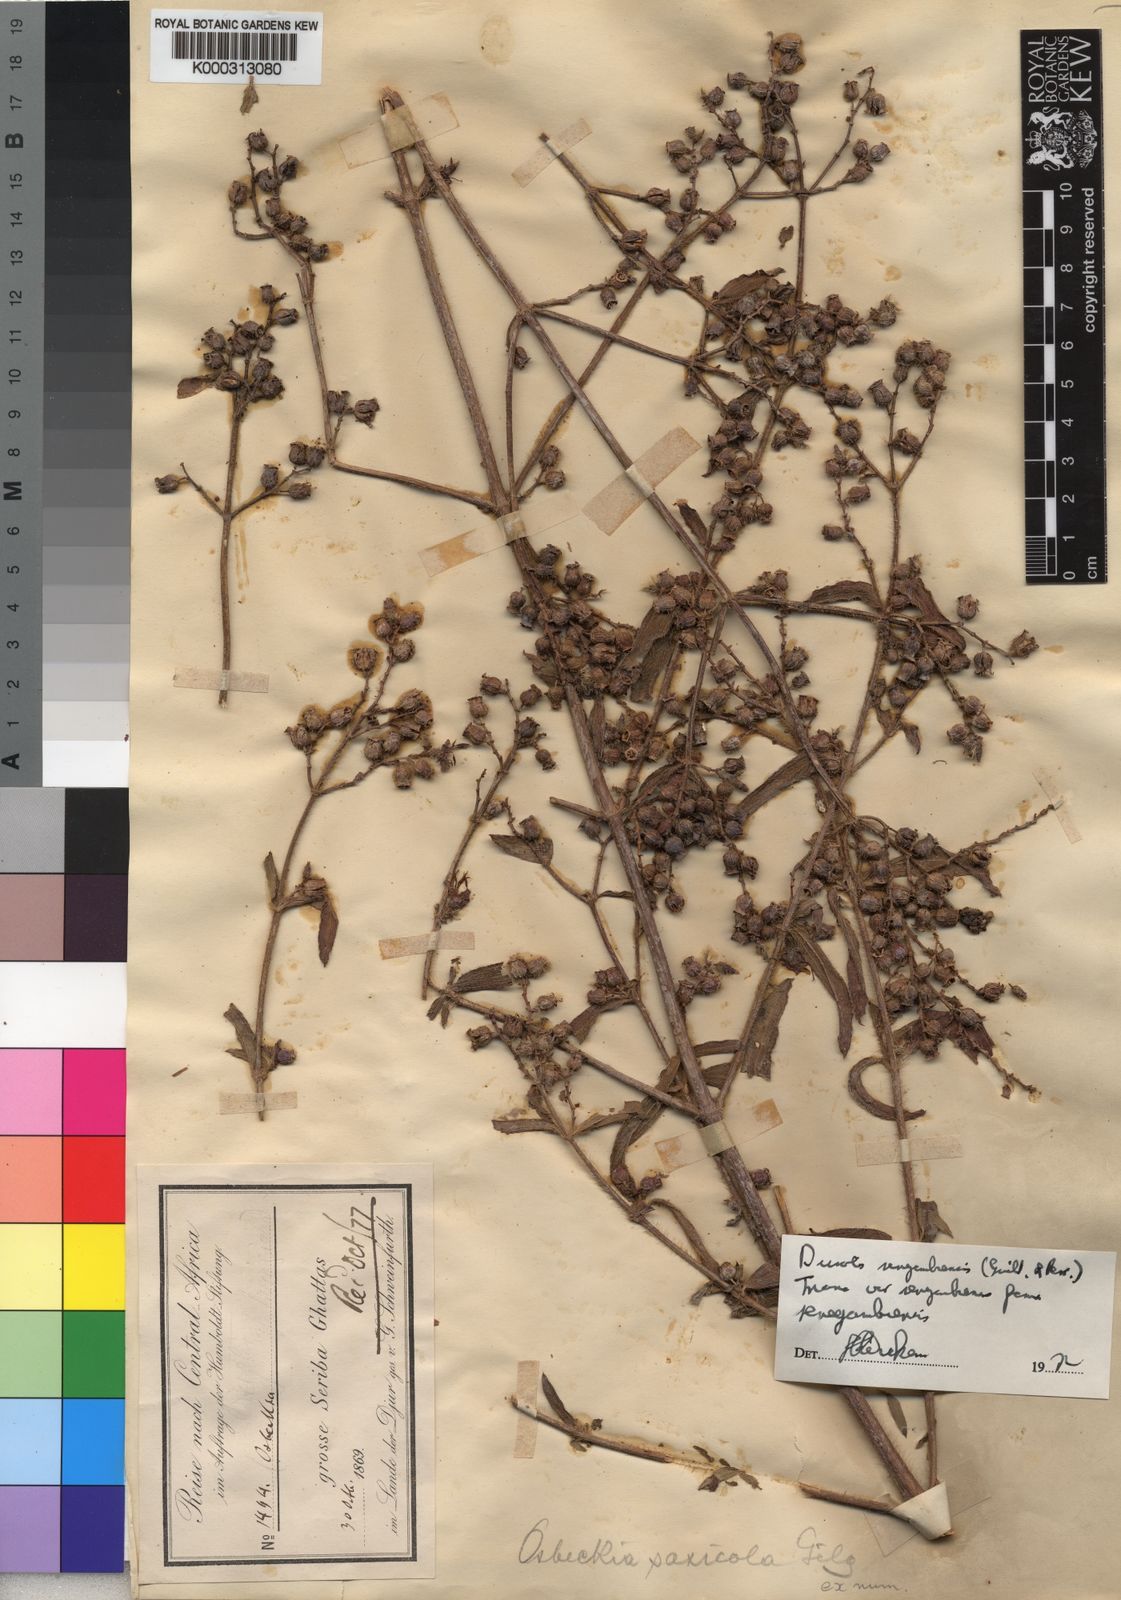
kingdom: Plantae
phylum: Tracheophyta
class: Magnoliopsida
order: Myrtales
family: Melastomataceae
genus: Antherotoma
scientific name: Antherotoma
